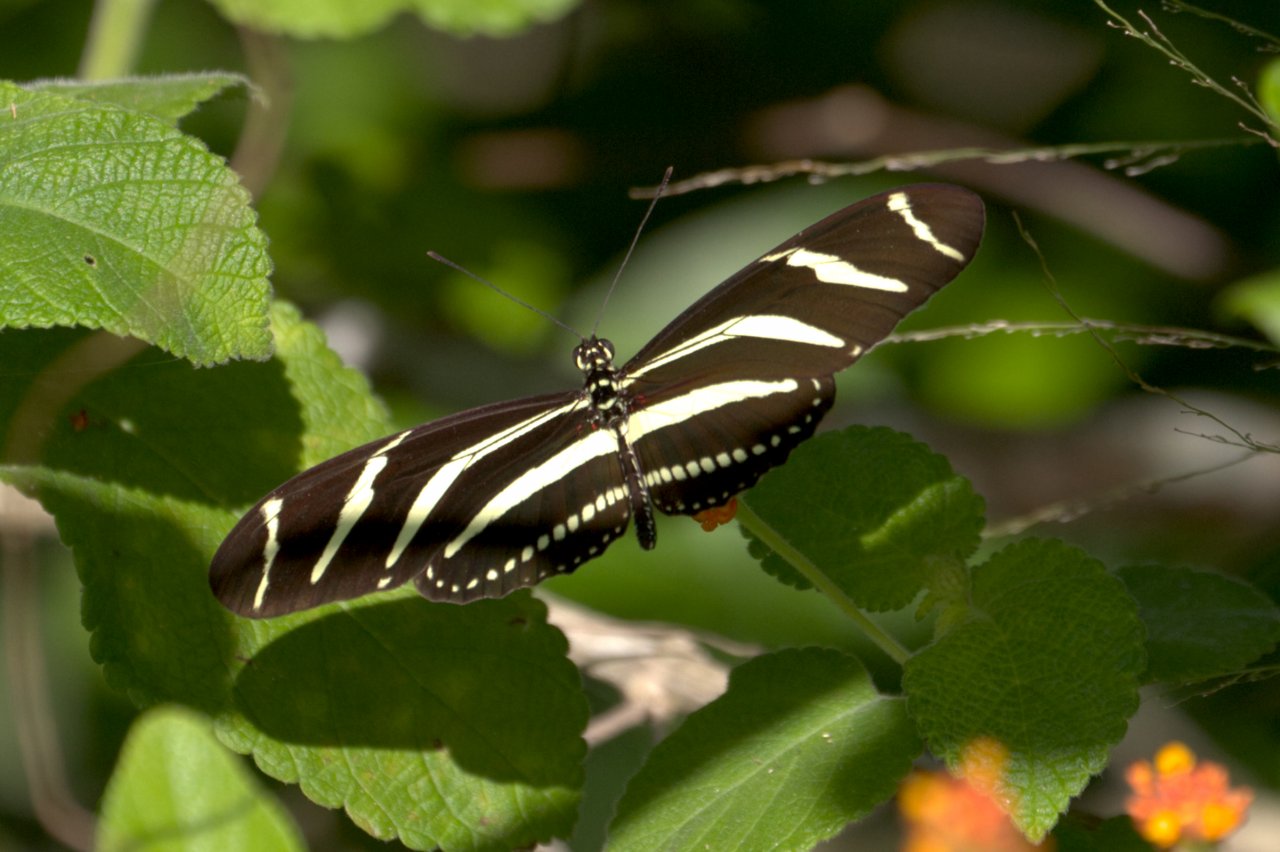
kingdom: Animalia
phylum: Arthropoda
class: Insecta
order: Lepidoptera
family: Nymphalidae
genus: Heliconius
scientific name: Heliconius charithonia
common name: Zebra Longwing
